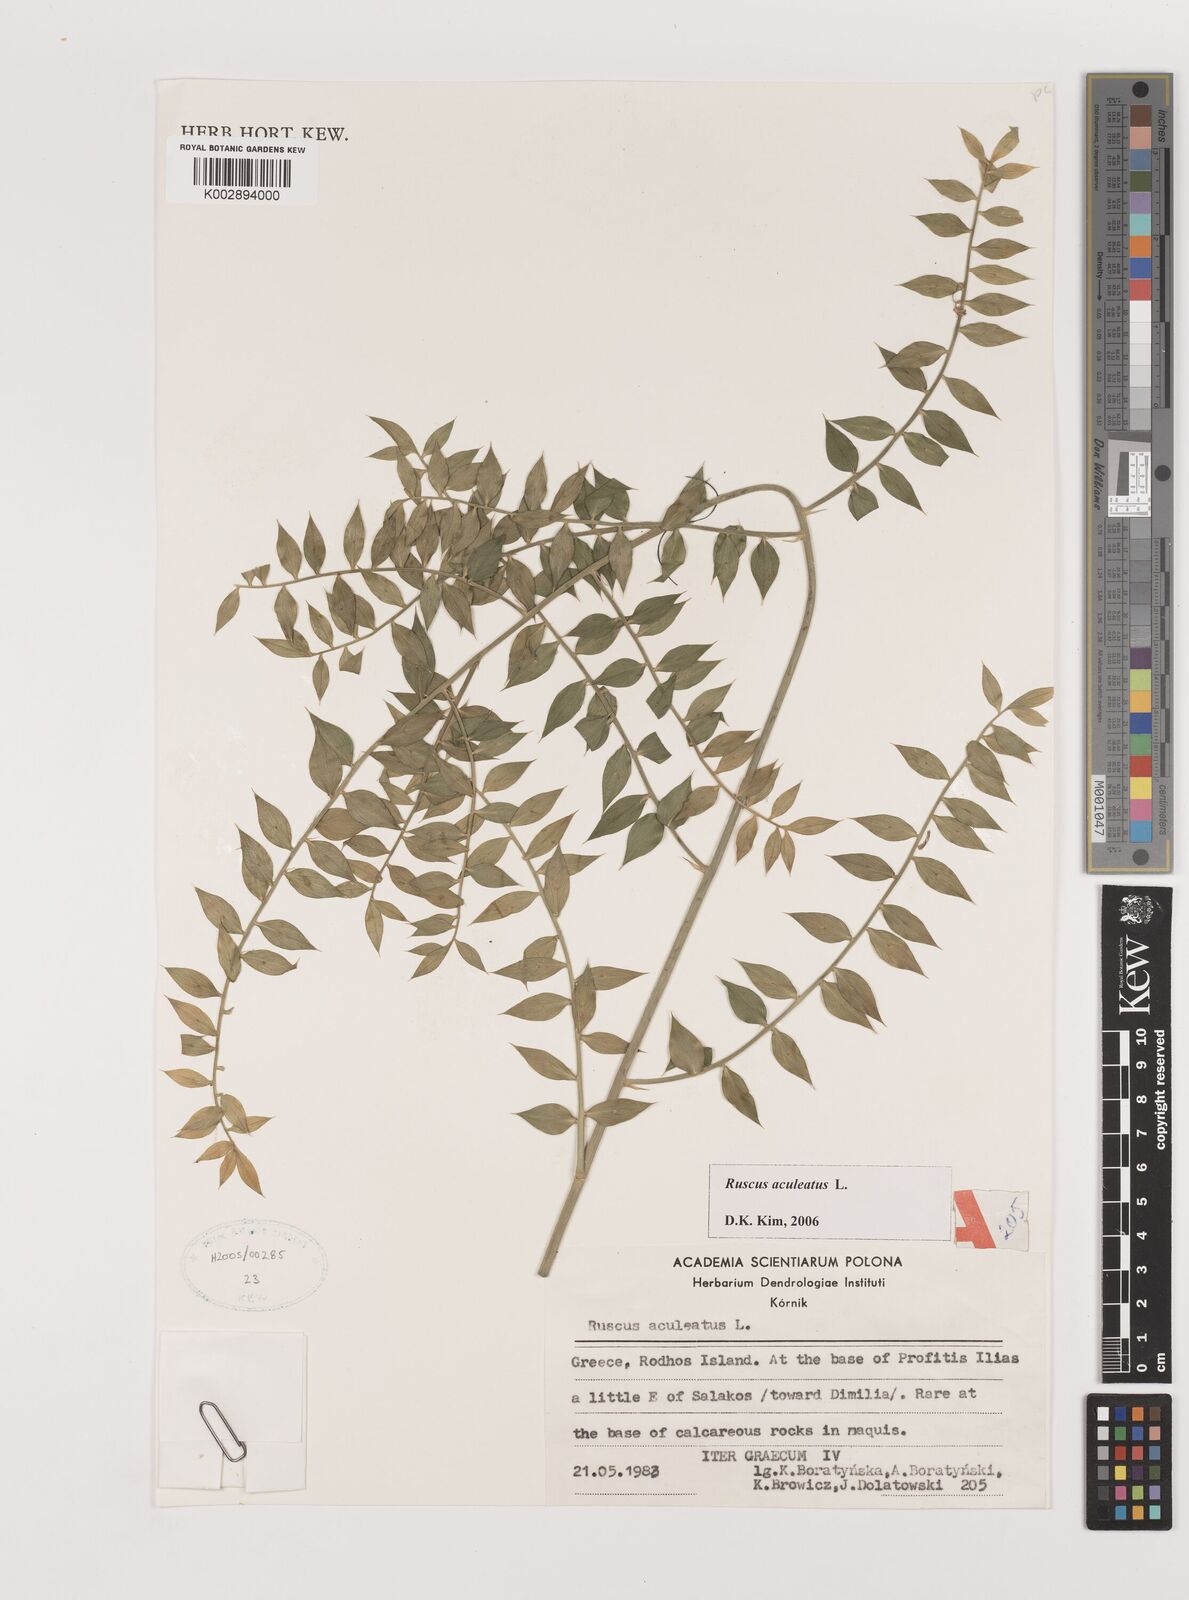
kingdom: Plantae
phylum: Tracheophyta
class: Liliopsida
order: Asparagales
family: Asparagaceae
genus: Ruscus
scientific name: Ruscus aculeatus
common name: Butcher's-broom
